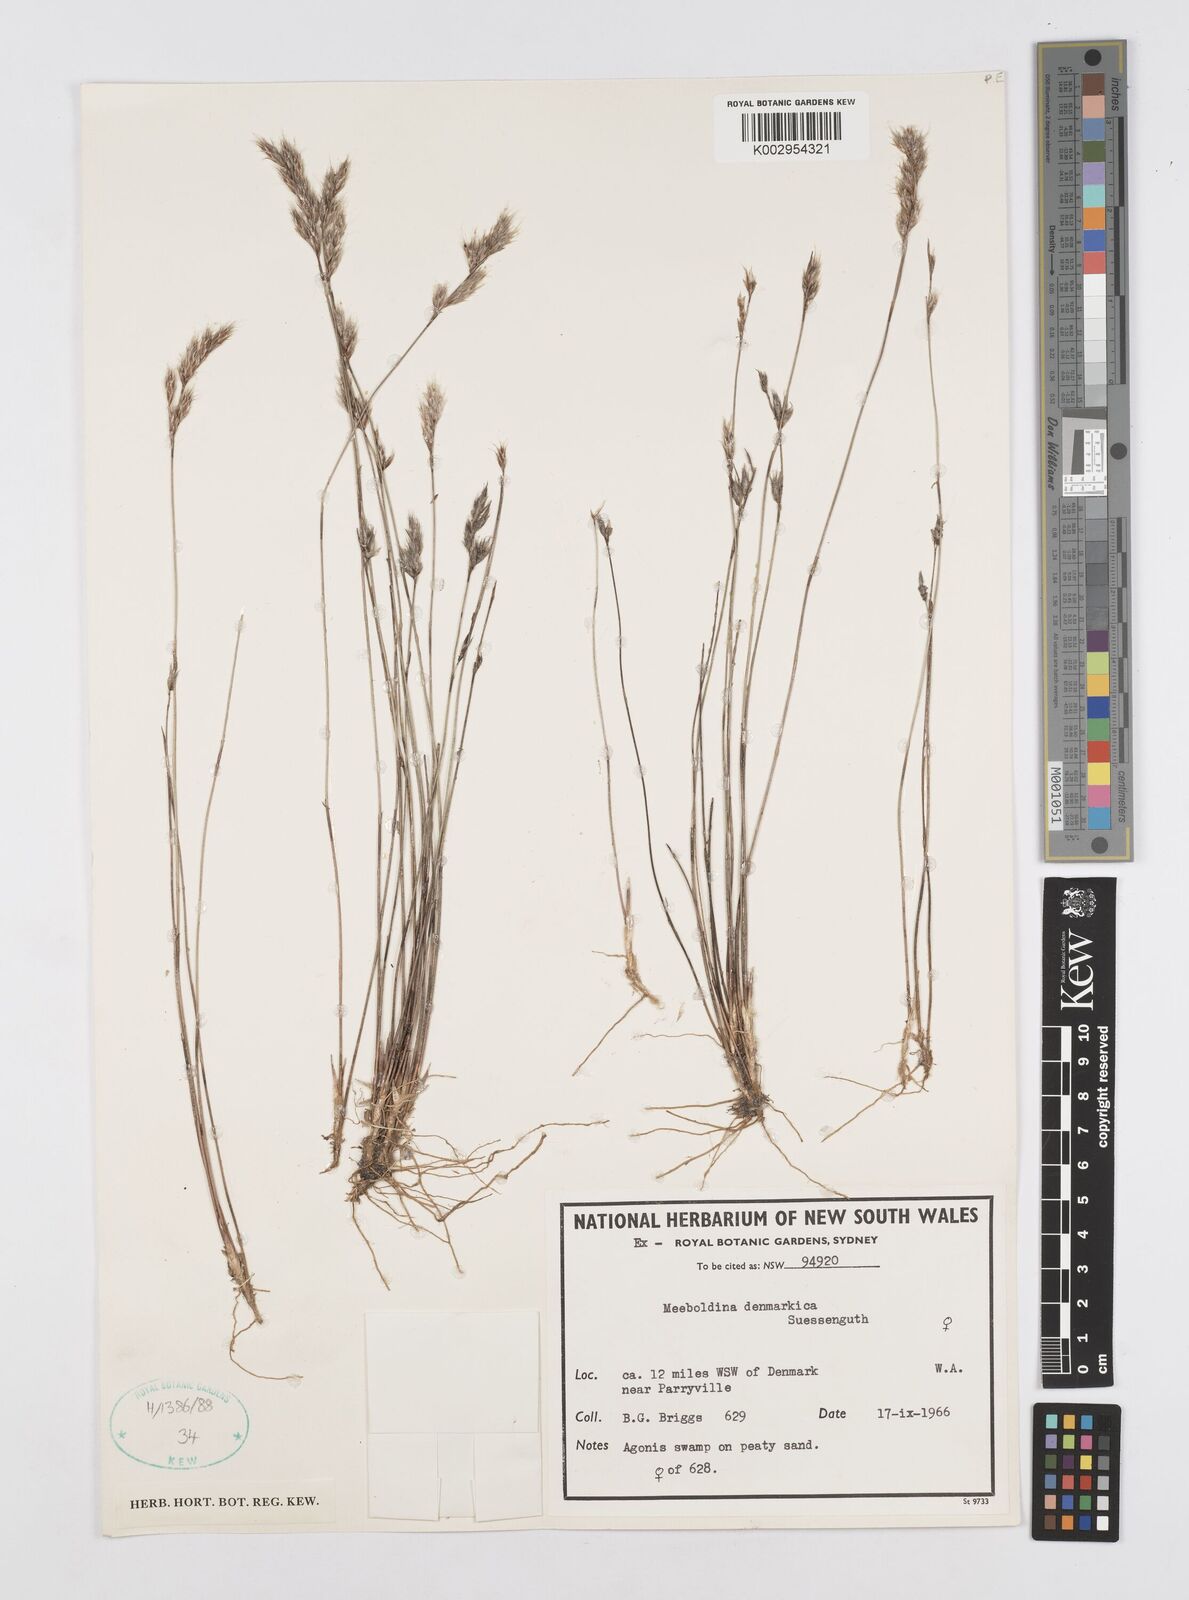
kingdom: Plantae
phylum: Tracheophyta
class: Liliopsida
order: Poales
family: Restionaceae
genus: Leptocarpus
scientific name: Leptocarpus denmarkicus
